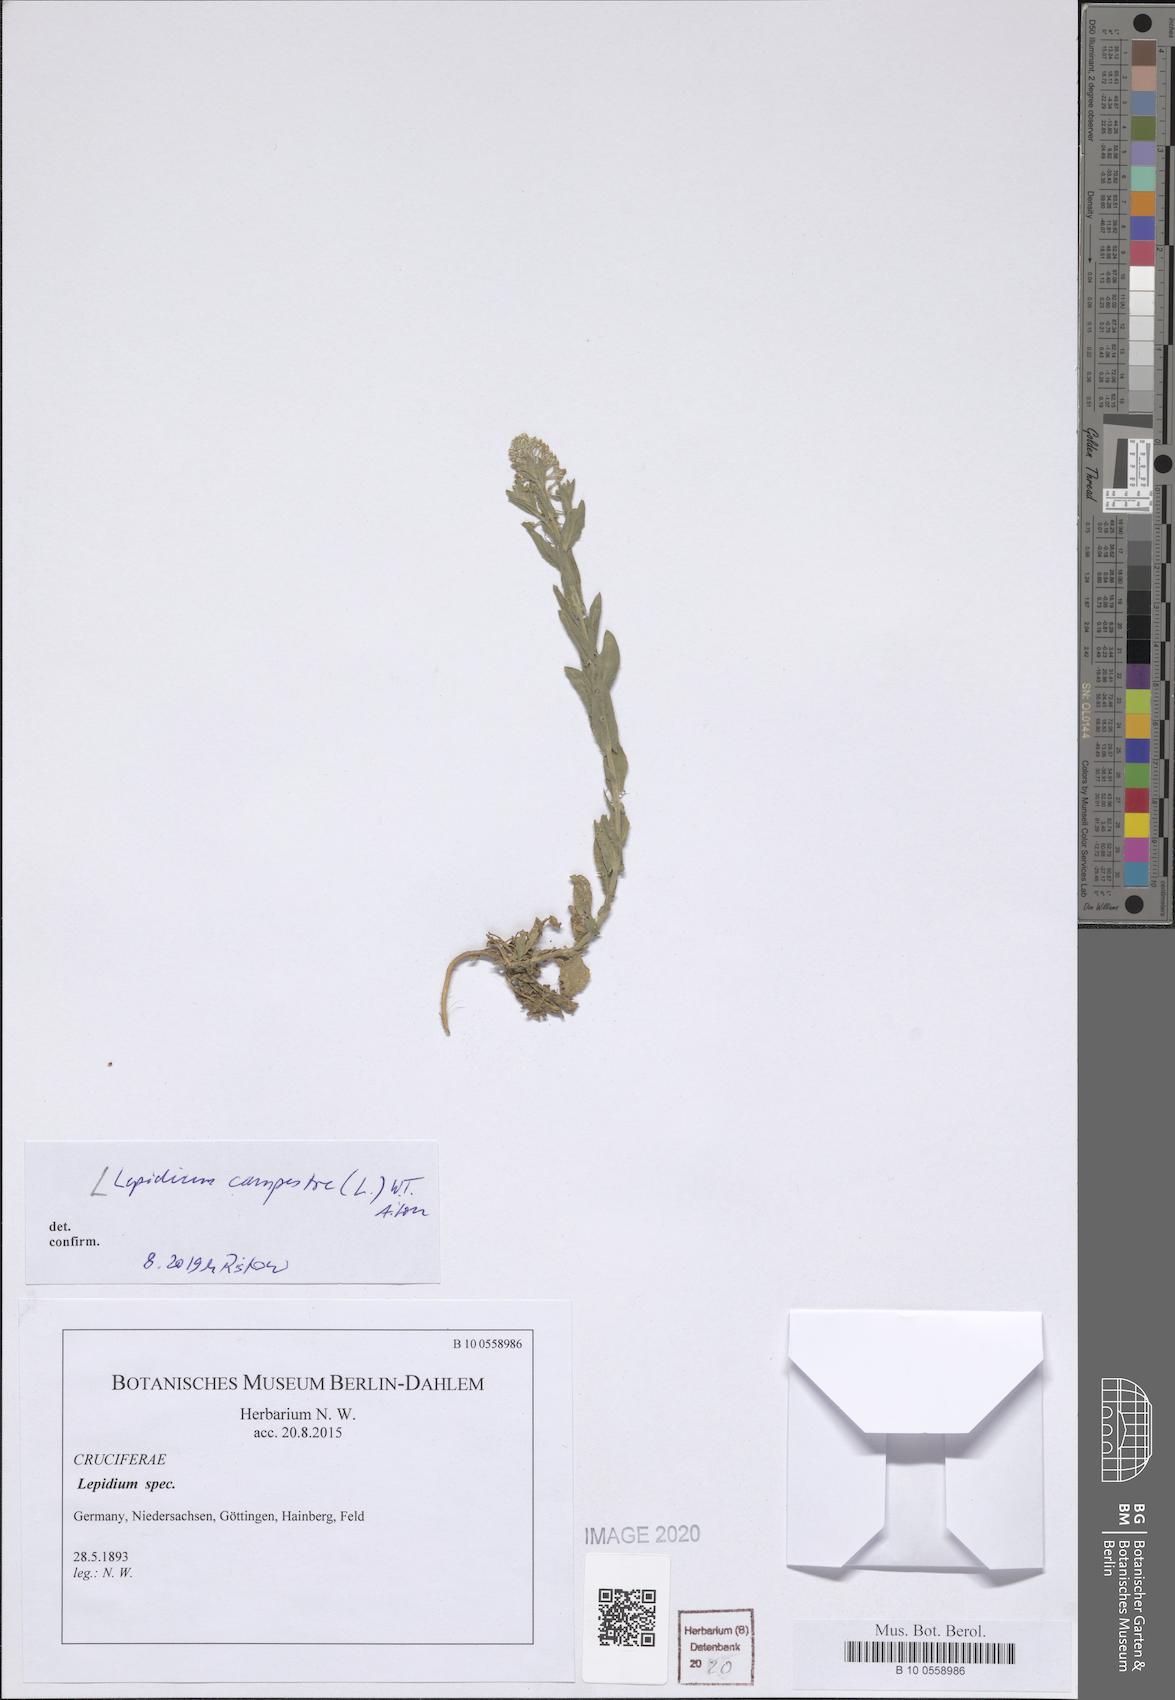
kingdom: Plantae
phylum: Tracheophyta
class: Magnoliopsida
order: Brassicales
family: Brassicaceae
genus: Lepidium
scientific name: Lepidium campestre
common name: Field pepperwort
